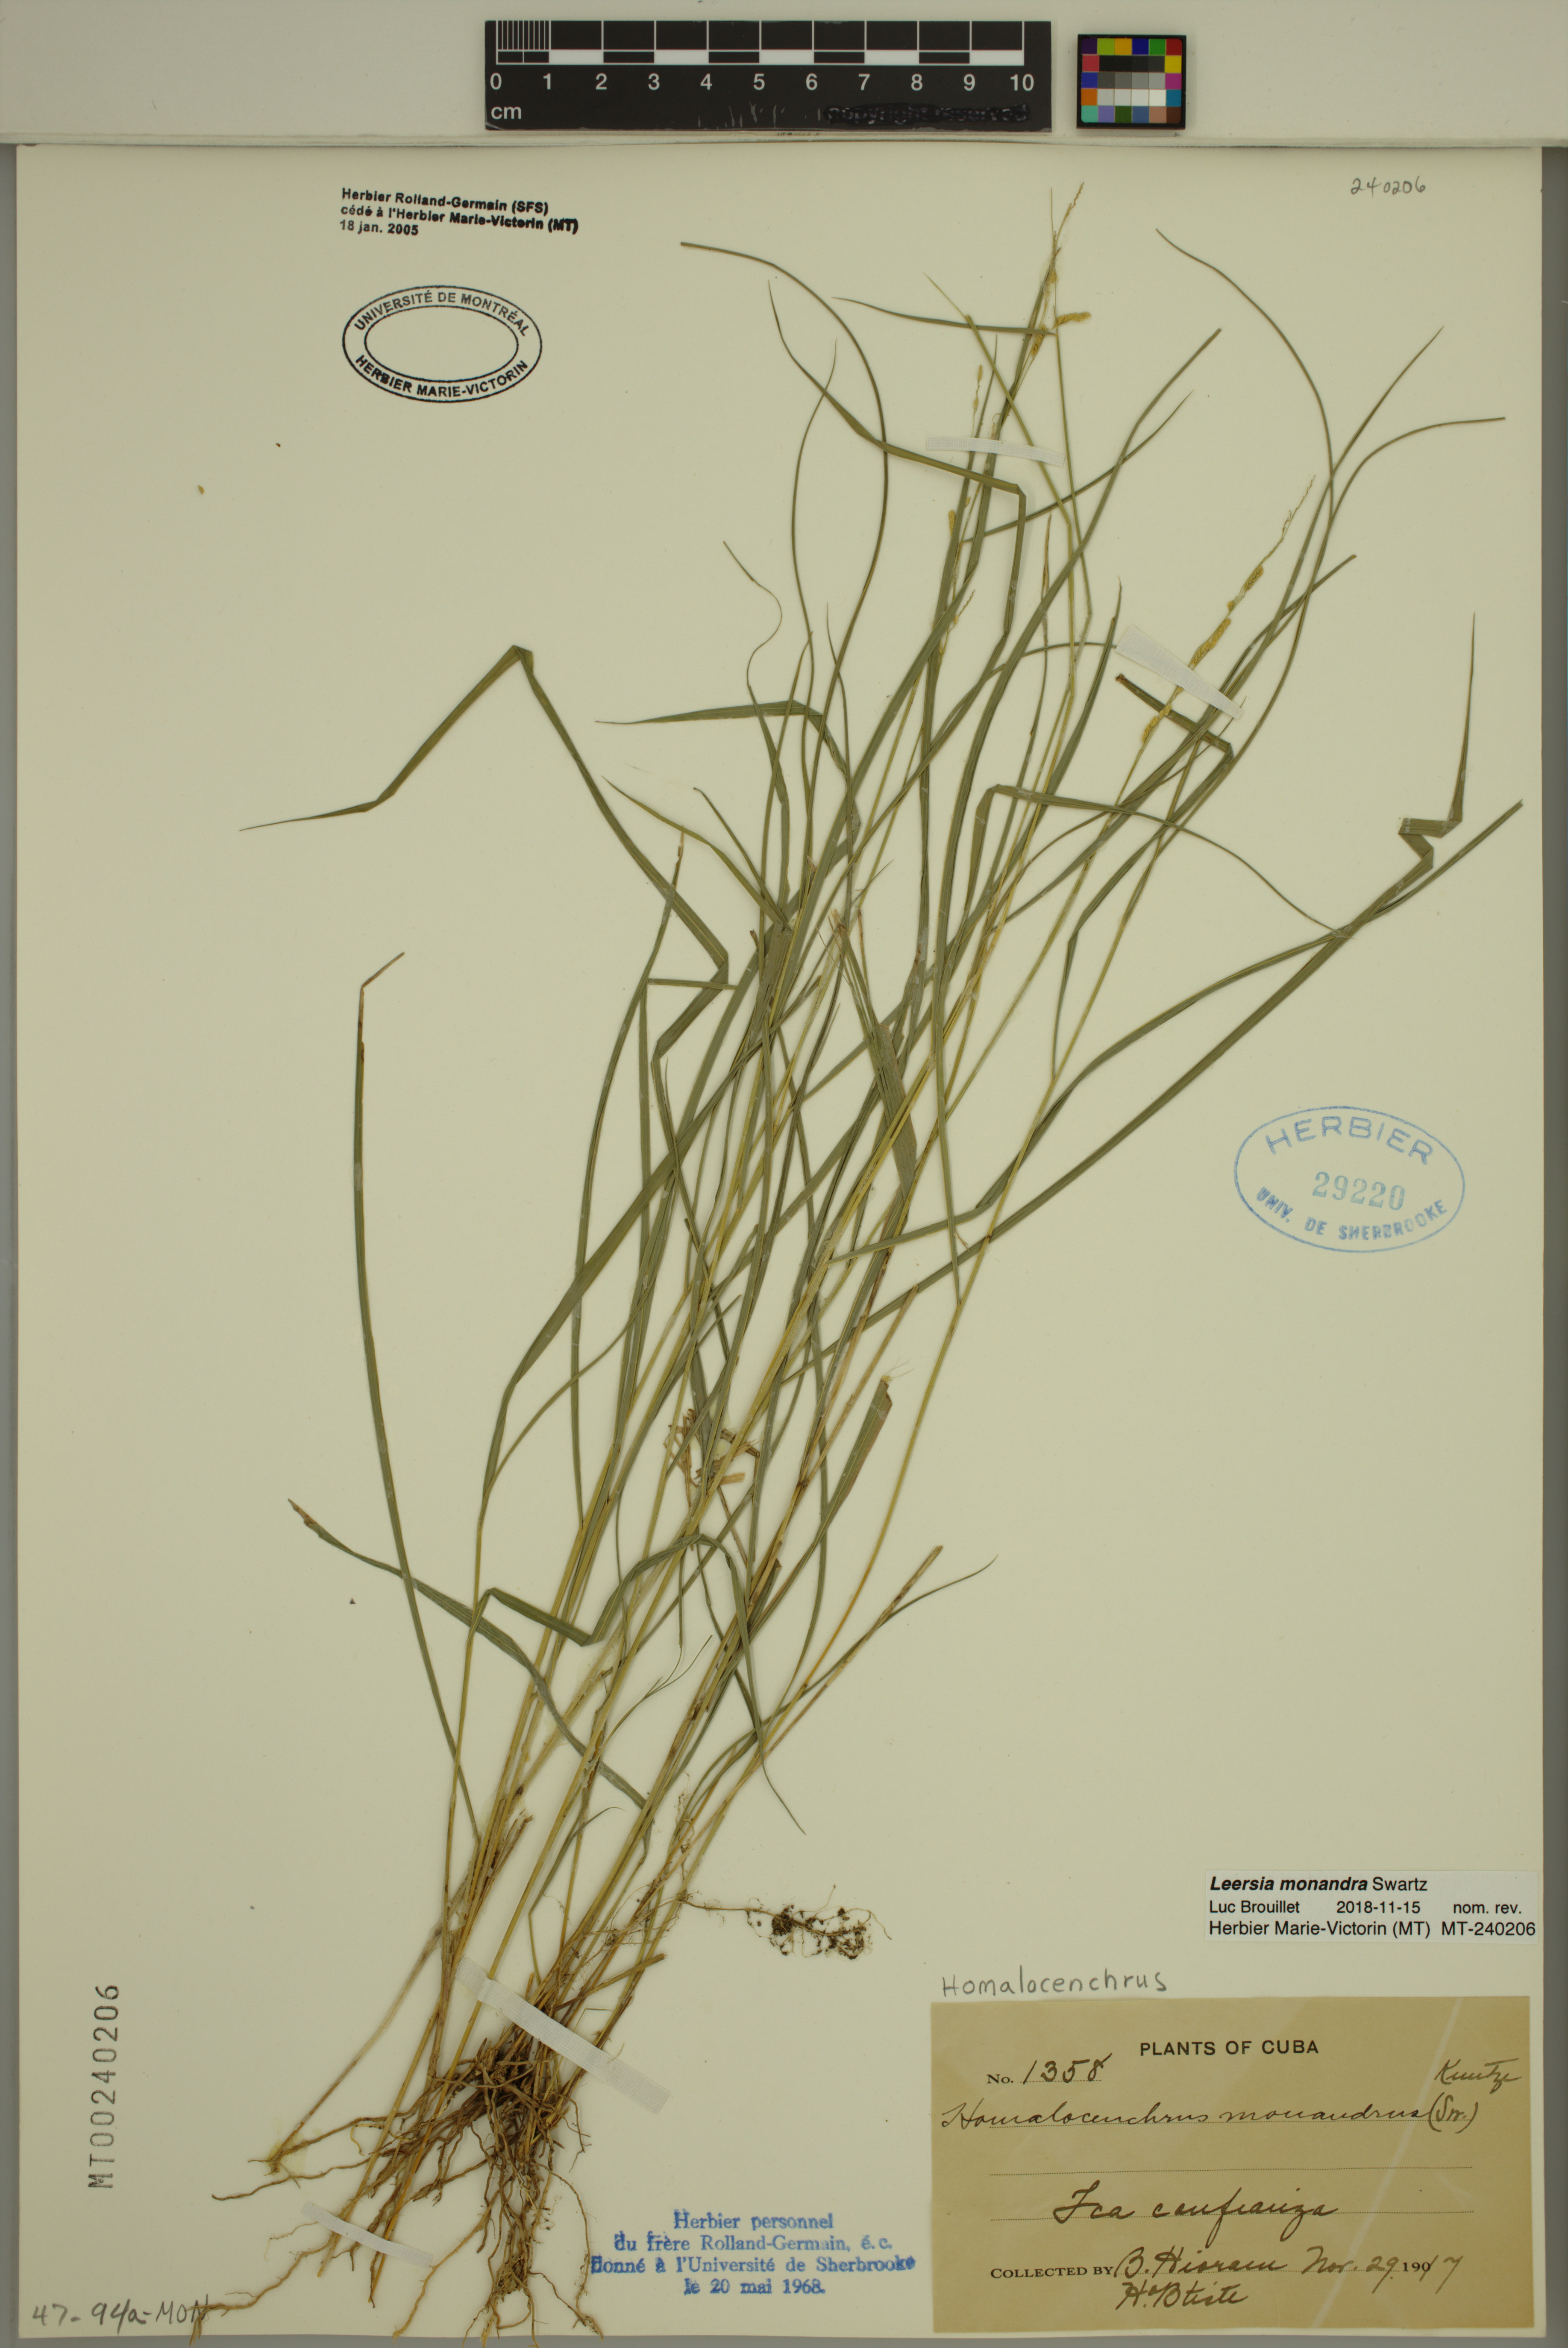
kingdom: Plantae
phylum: Tracheophyta
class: Liliopsida
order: Poales
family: Poaceae
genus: Leersia
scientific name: Leersia monandra
